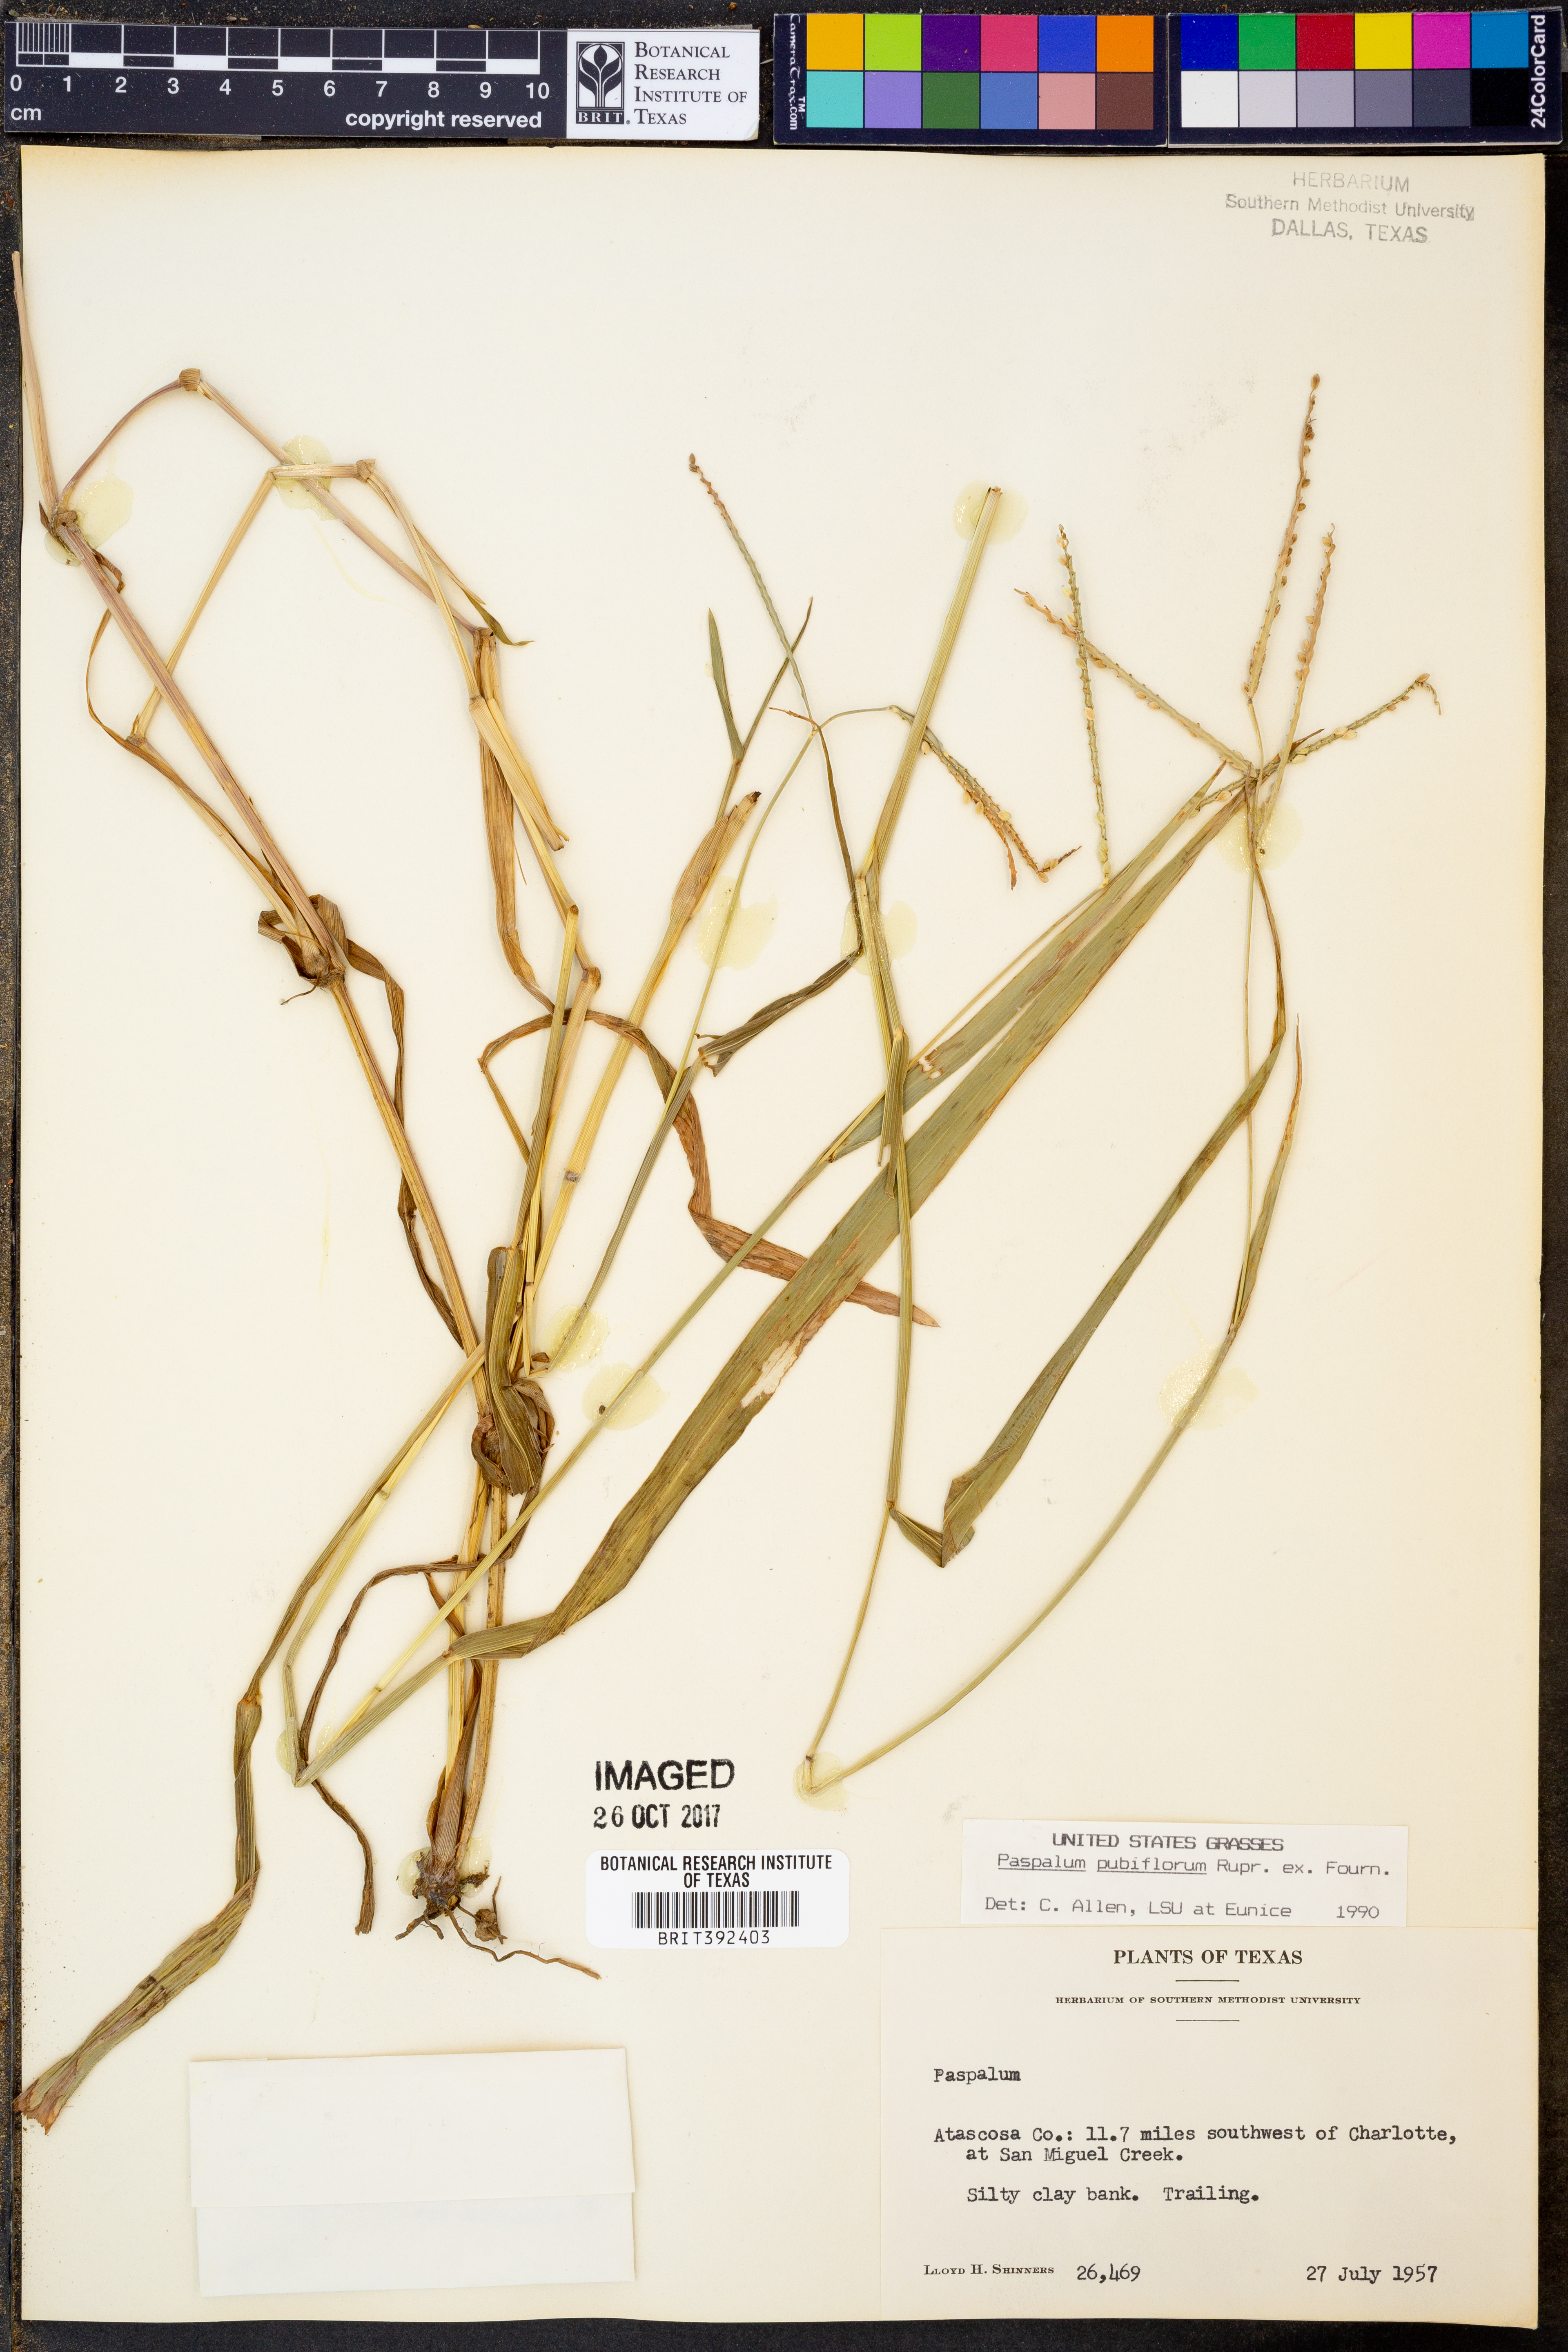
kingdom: Plantae
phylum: Tracheophyta
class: Liliopsida
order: Poales
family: Poaceae
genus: Paspalum
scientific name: Paspalum pubiflorum
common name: Hairy-seed paspalum
